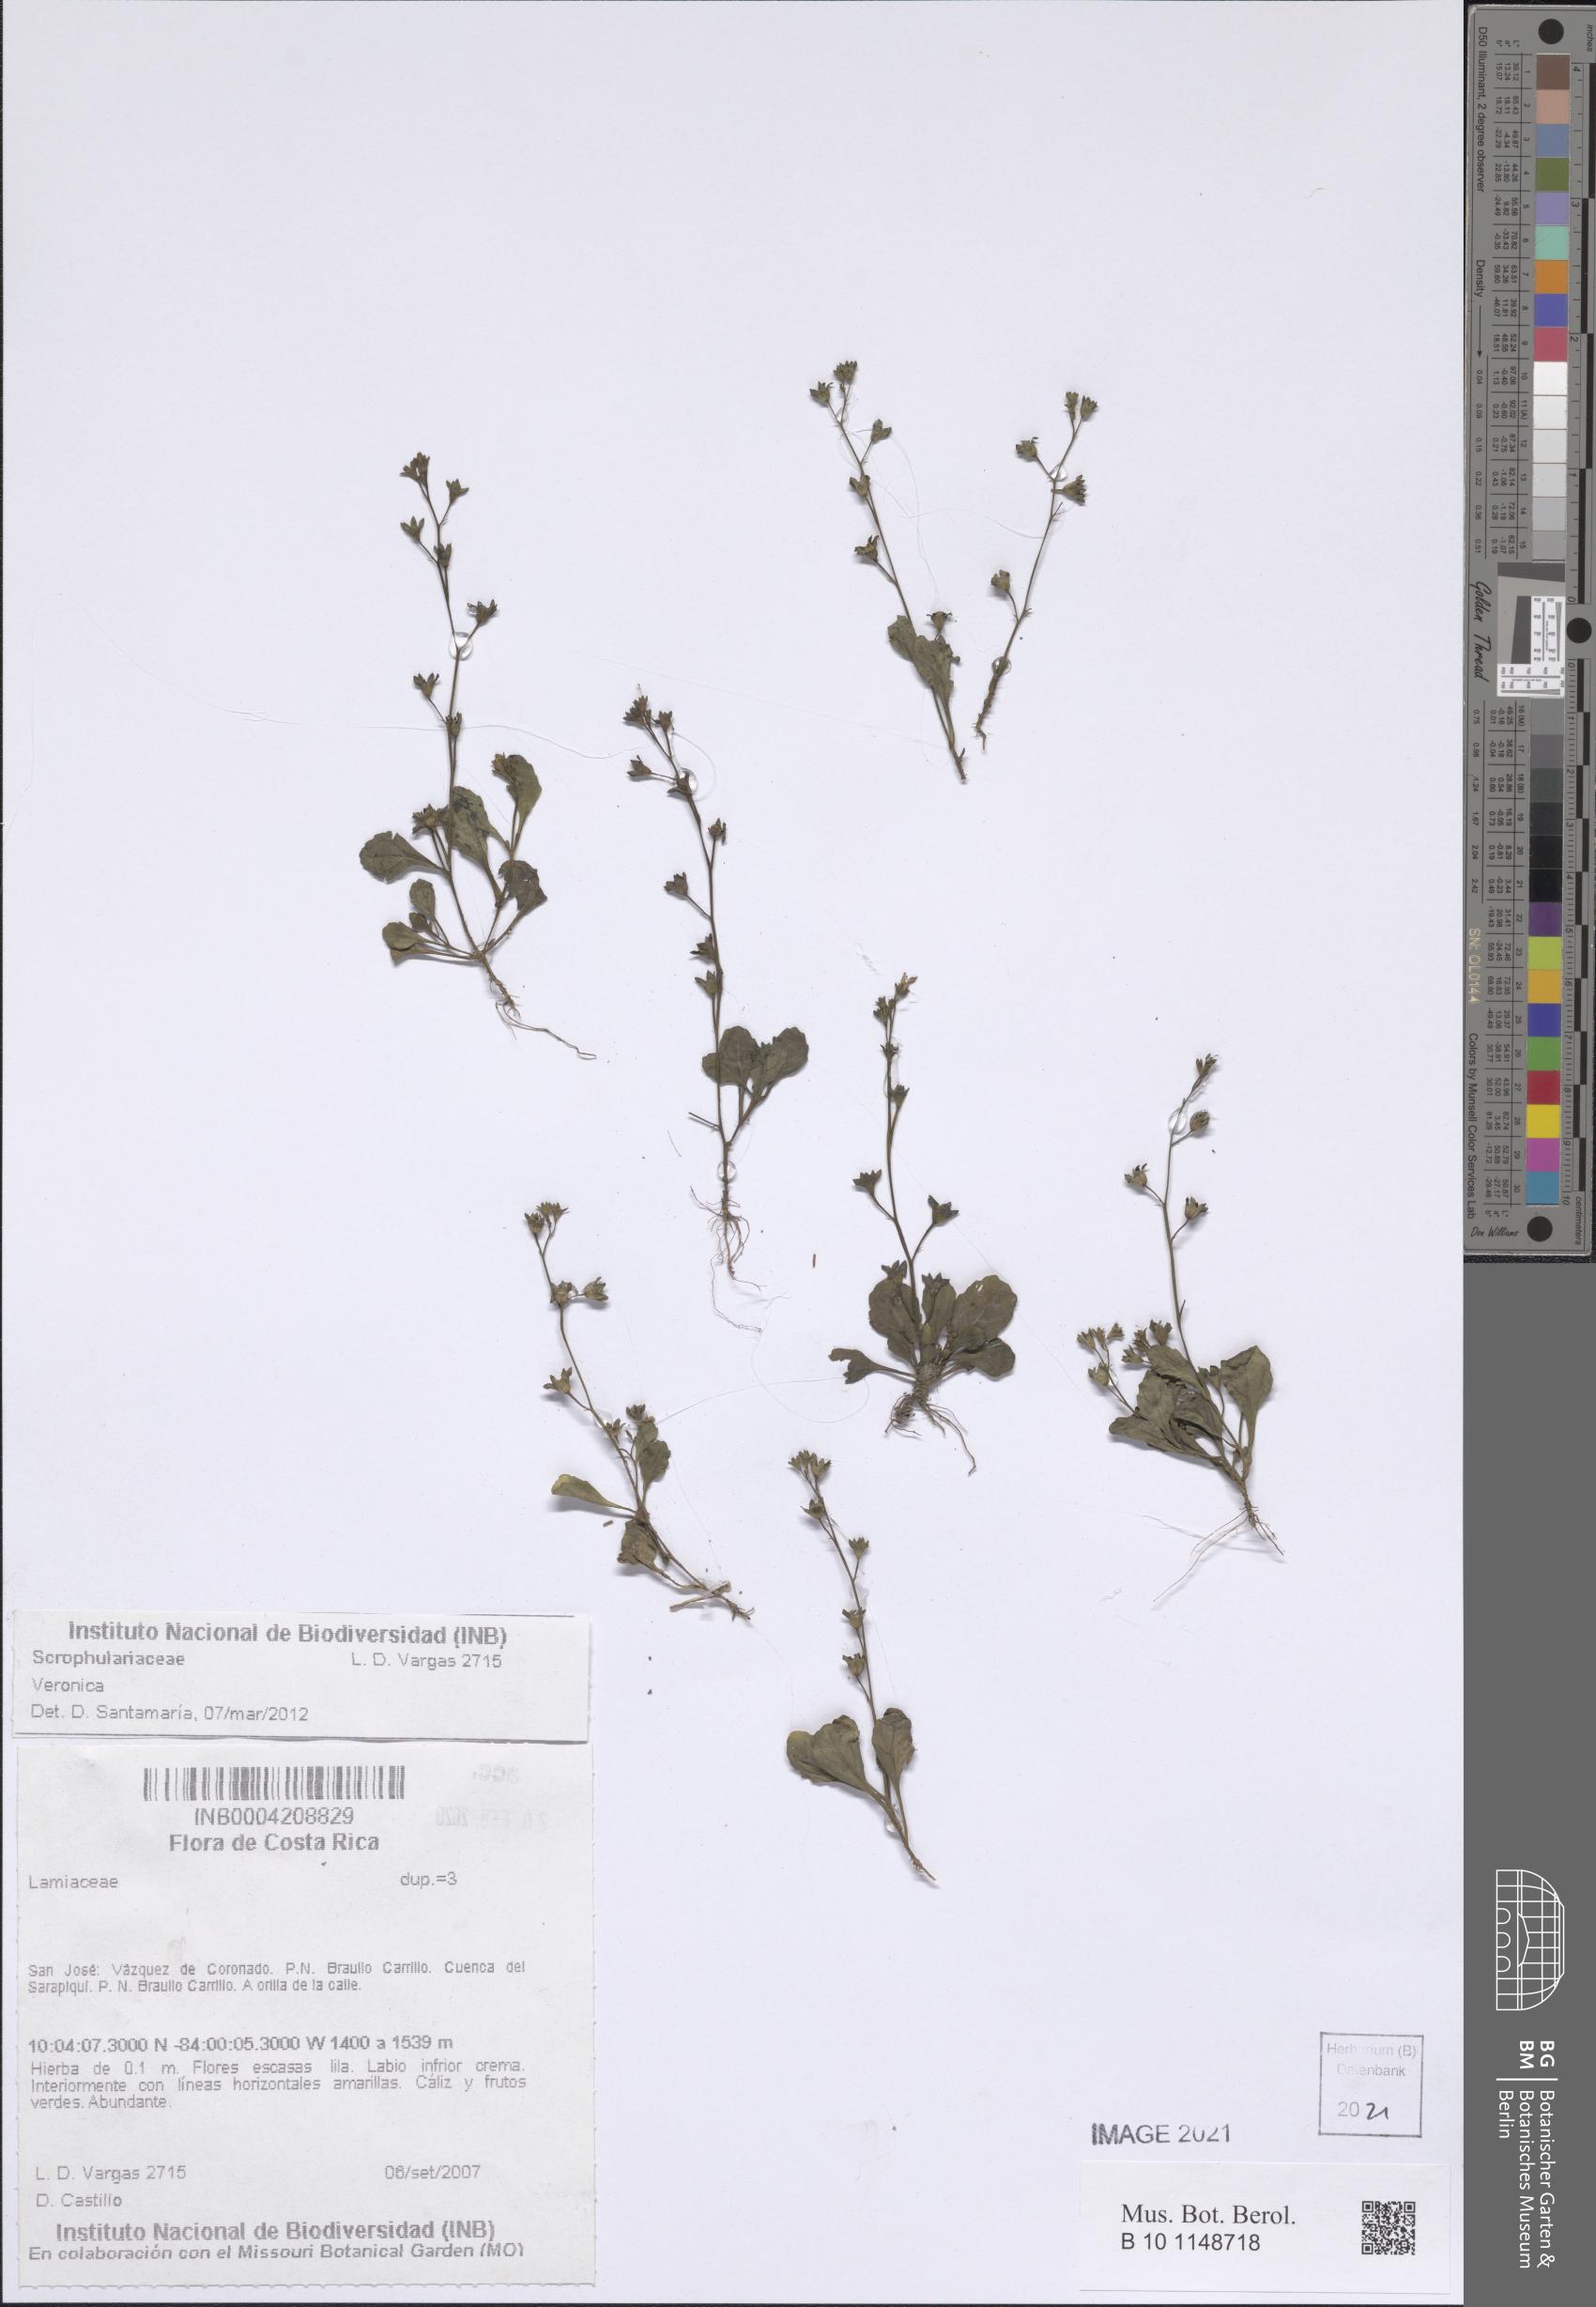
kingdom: Plantae
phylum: Tracheophyta
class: Magnoliopsida
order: Lamiales
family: Mazaceae
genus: Mazus
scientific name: Mazus pumilus
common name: Japanese mazus
